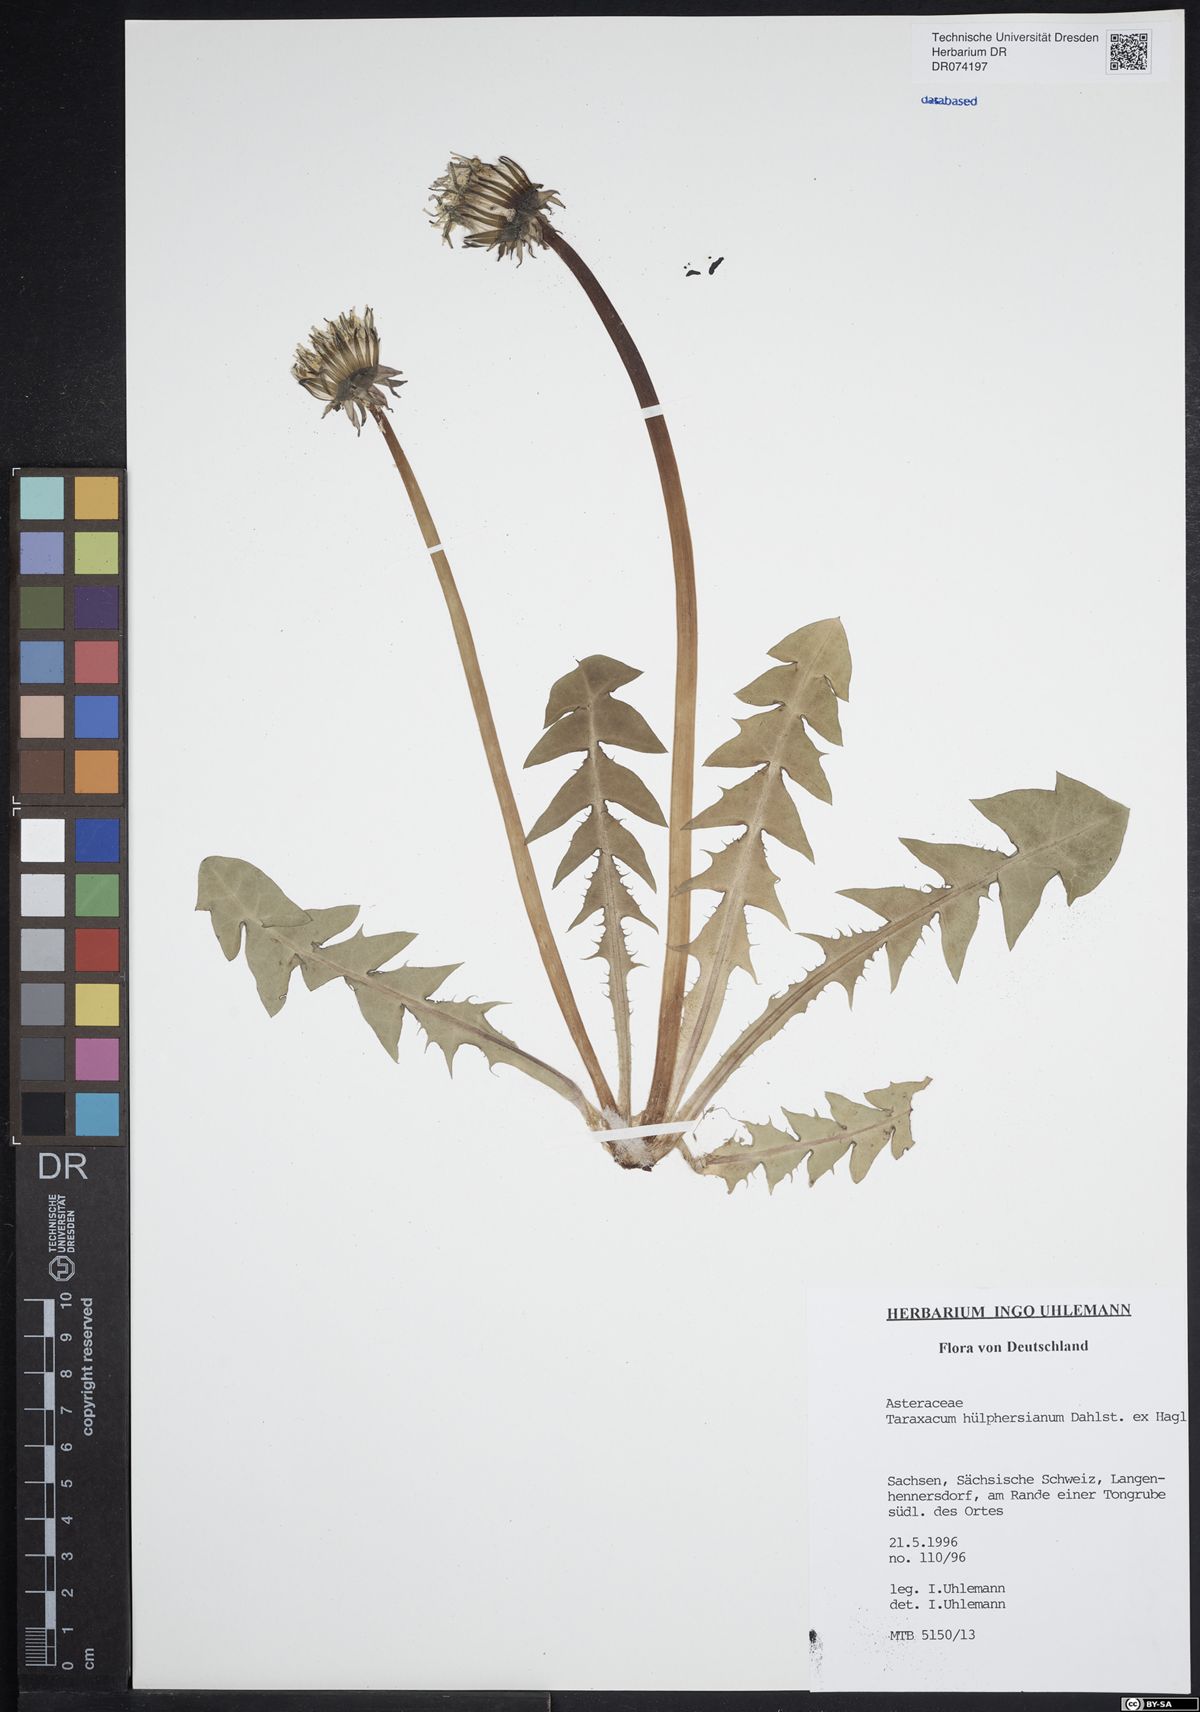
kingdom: Plantae
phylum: Tracheophyta
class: Magnoliopsida
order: Asterales
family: Asteraceae
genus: Taraxacum
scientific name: Taraxacum huelphersianum
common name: Hülphers's dandelion
